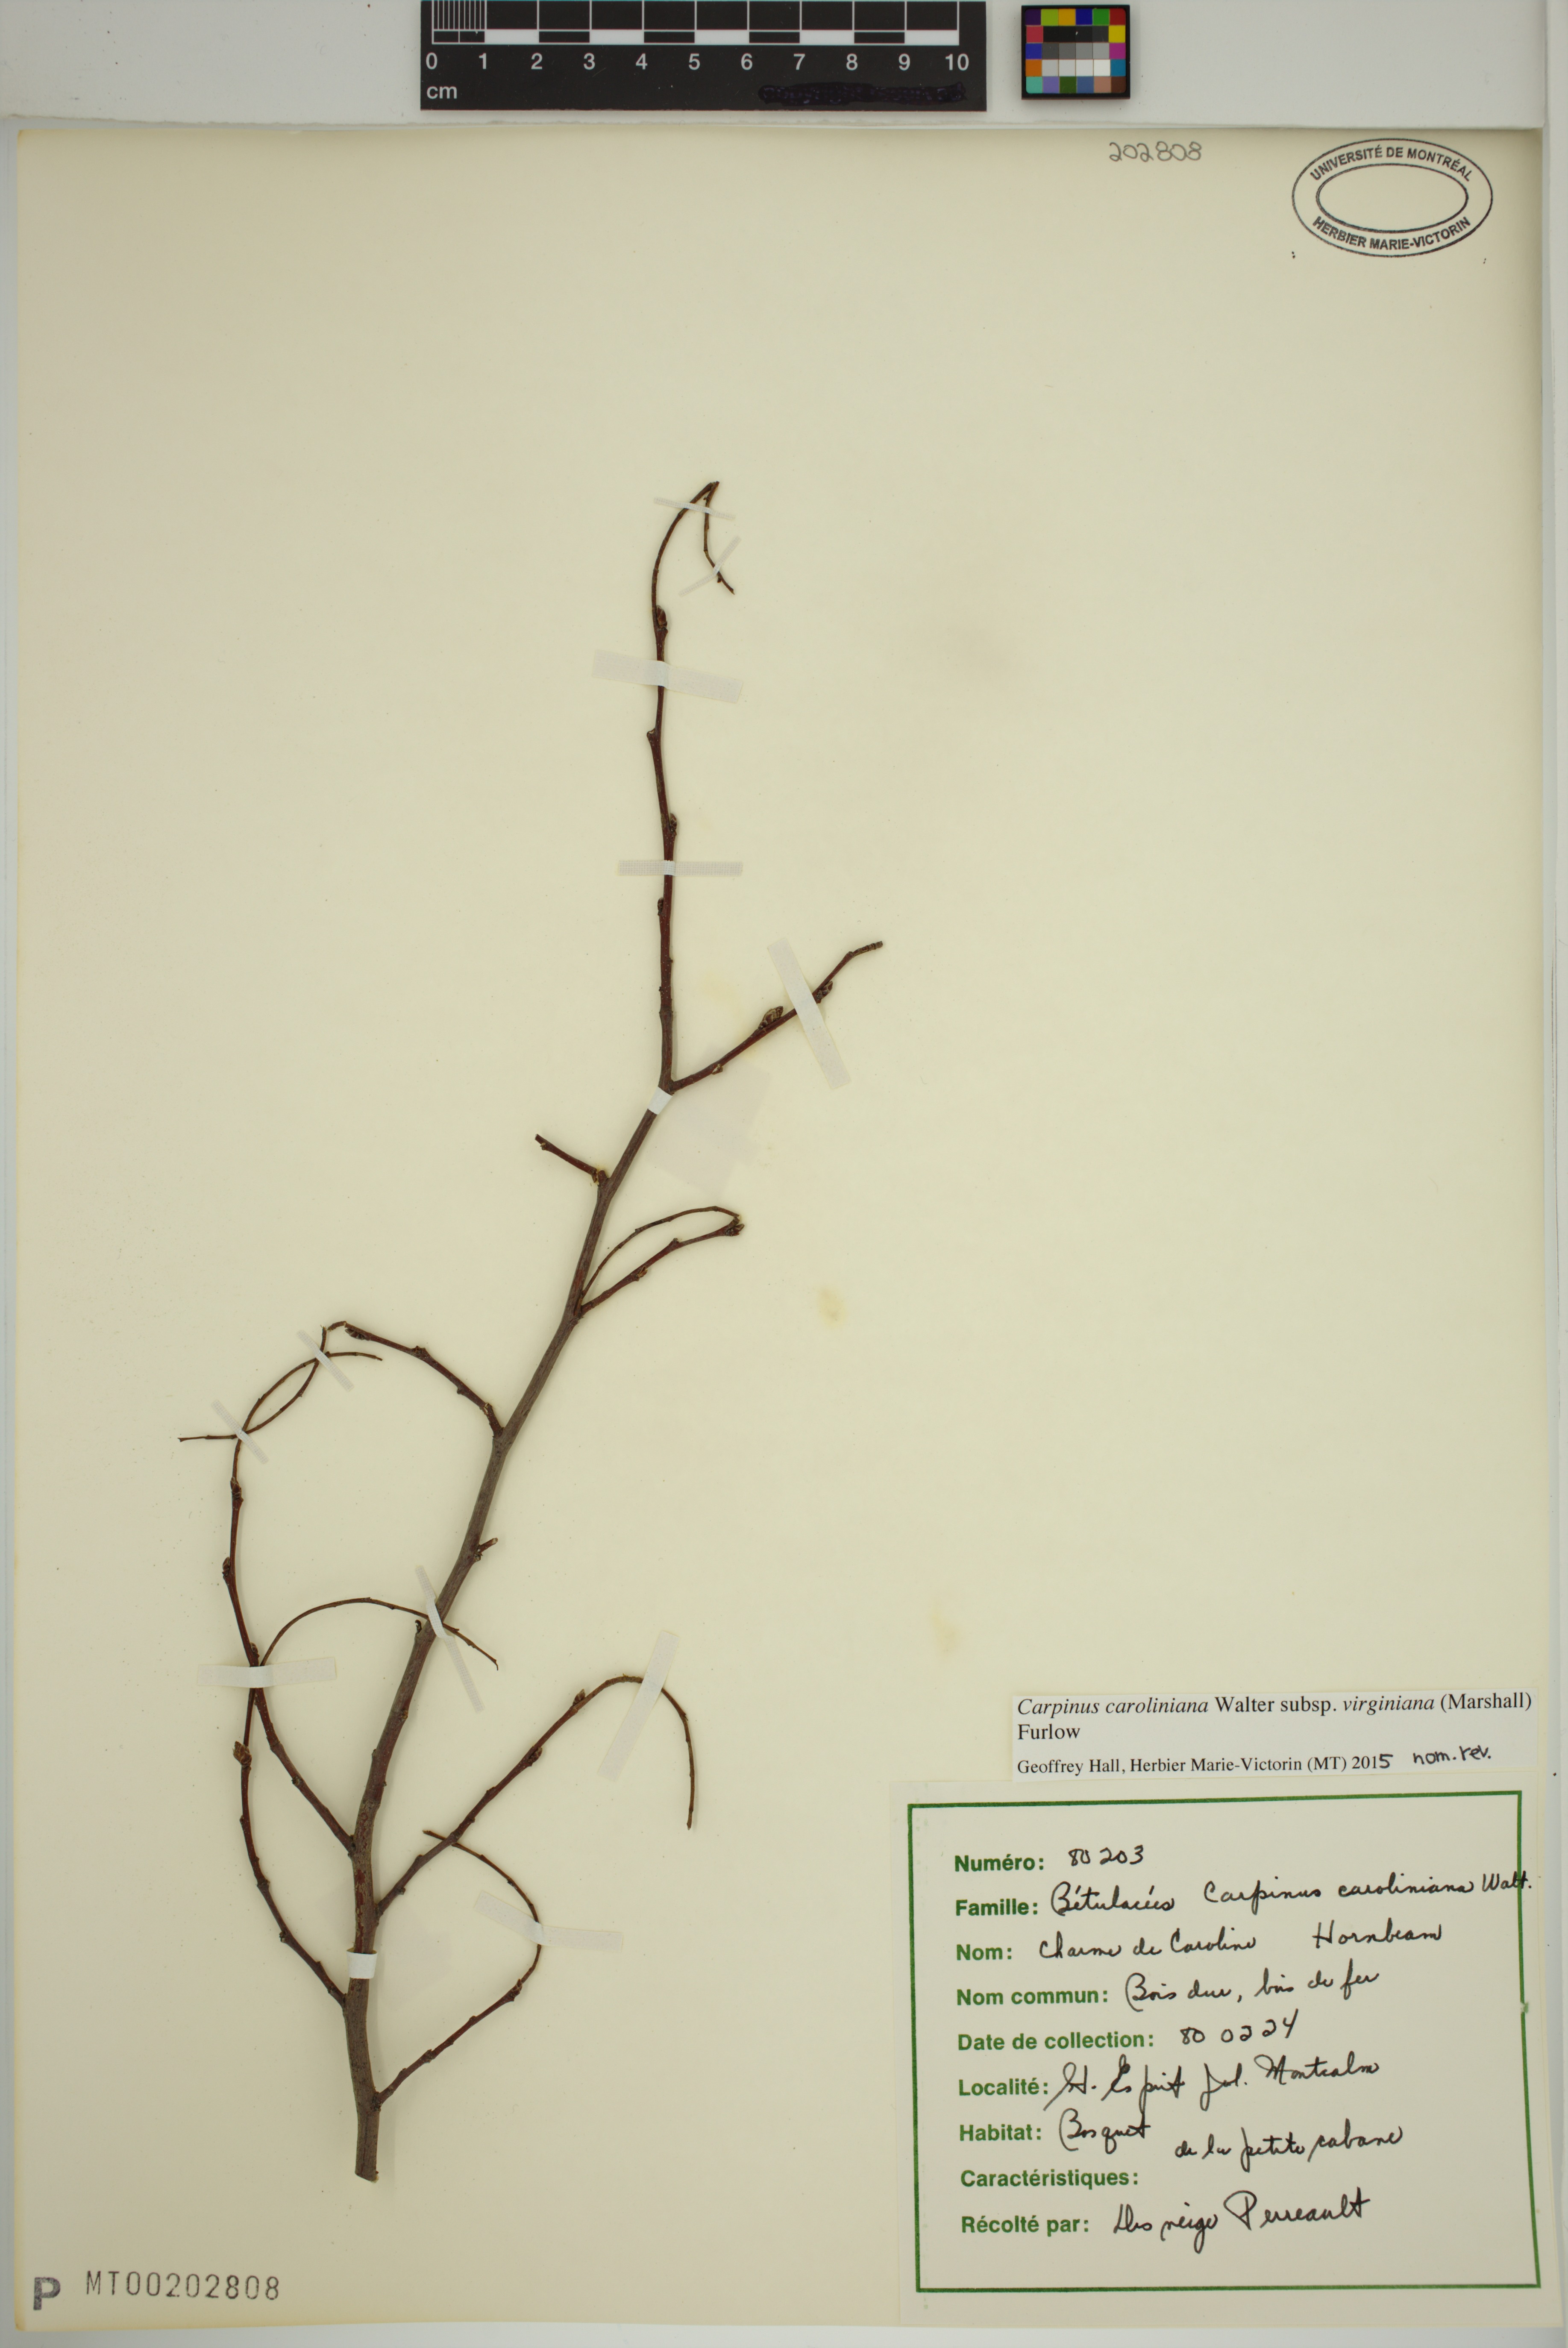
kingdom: Plantae
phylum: Tracheophyta
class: Magnoliopsida
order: Fagales
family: Betulaceae
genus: Carpinus
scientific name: Carpinus caroliniana
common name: American hornbeam
